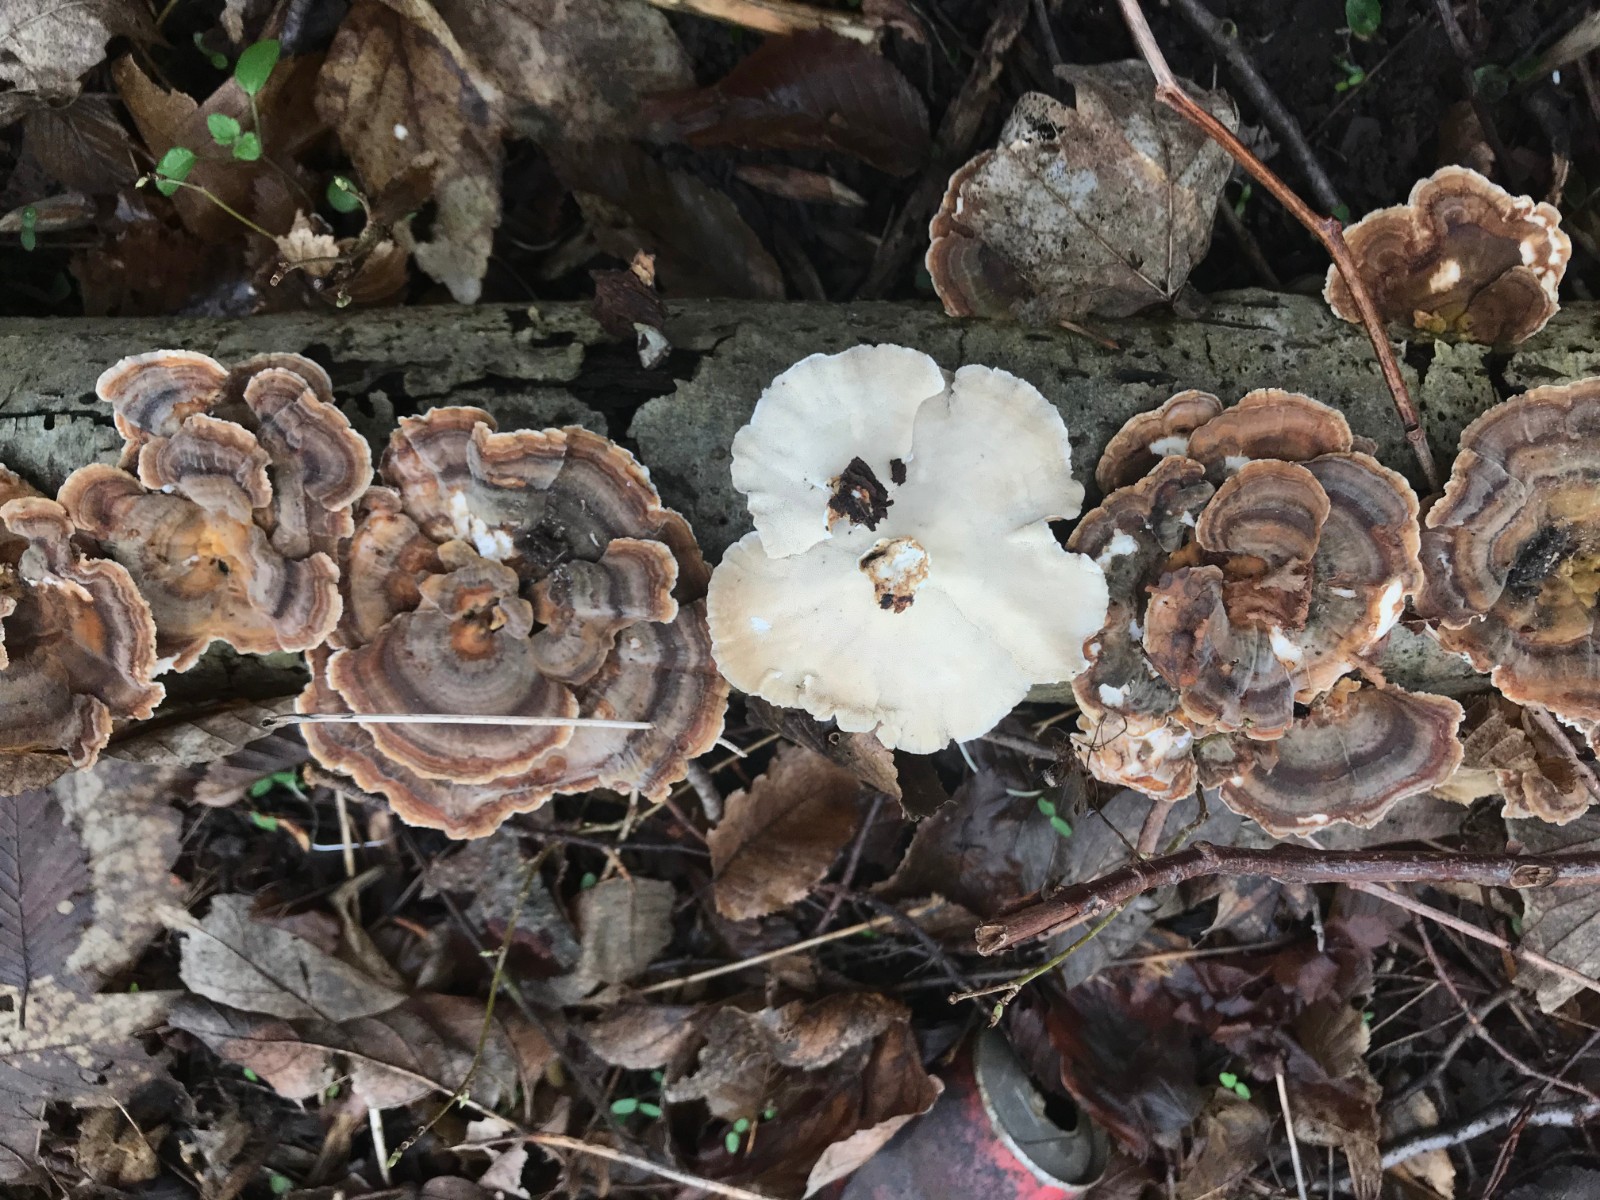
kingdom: Fungi
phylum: Basidiomycota
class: Agaricomycetes
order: Polyporales
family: Polyporaceae
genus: Trametes
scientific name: Trametes versicolor
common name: broget læderporesvamp
